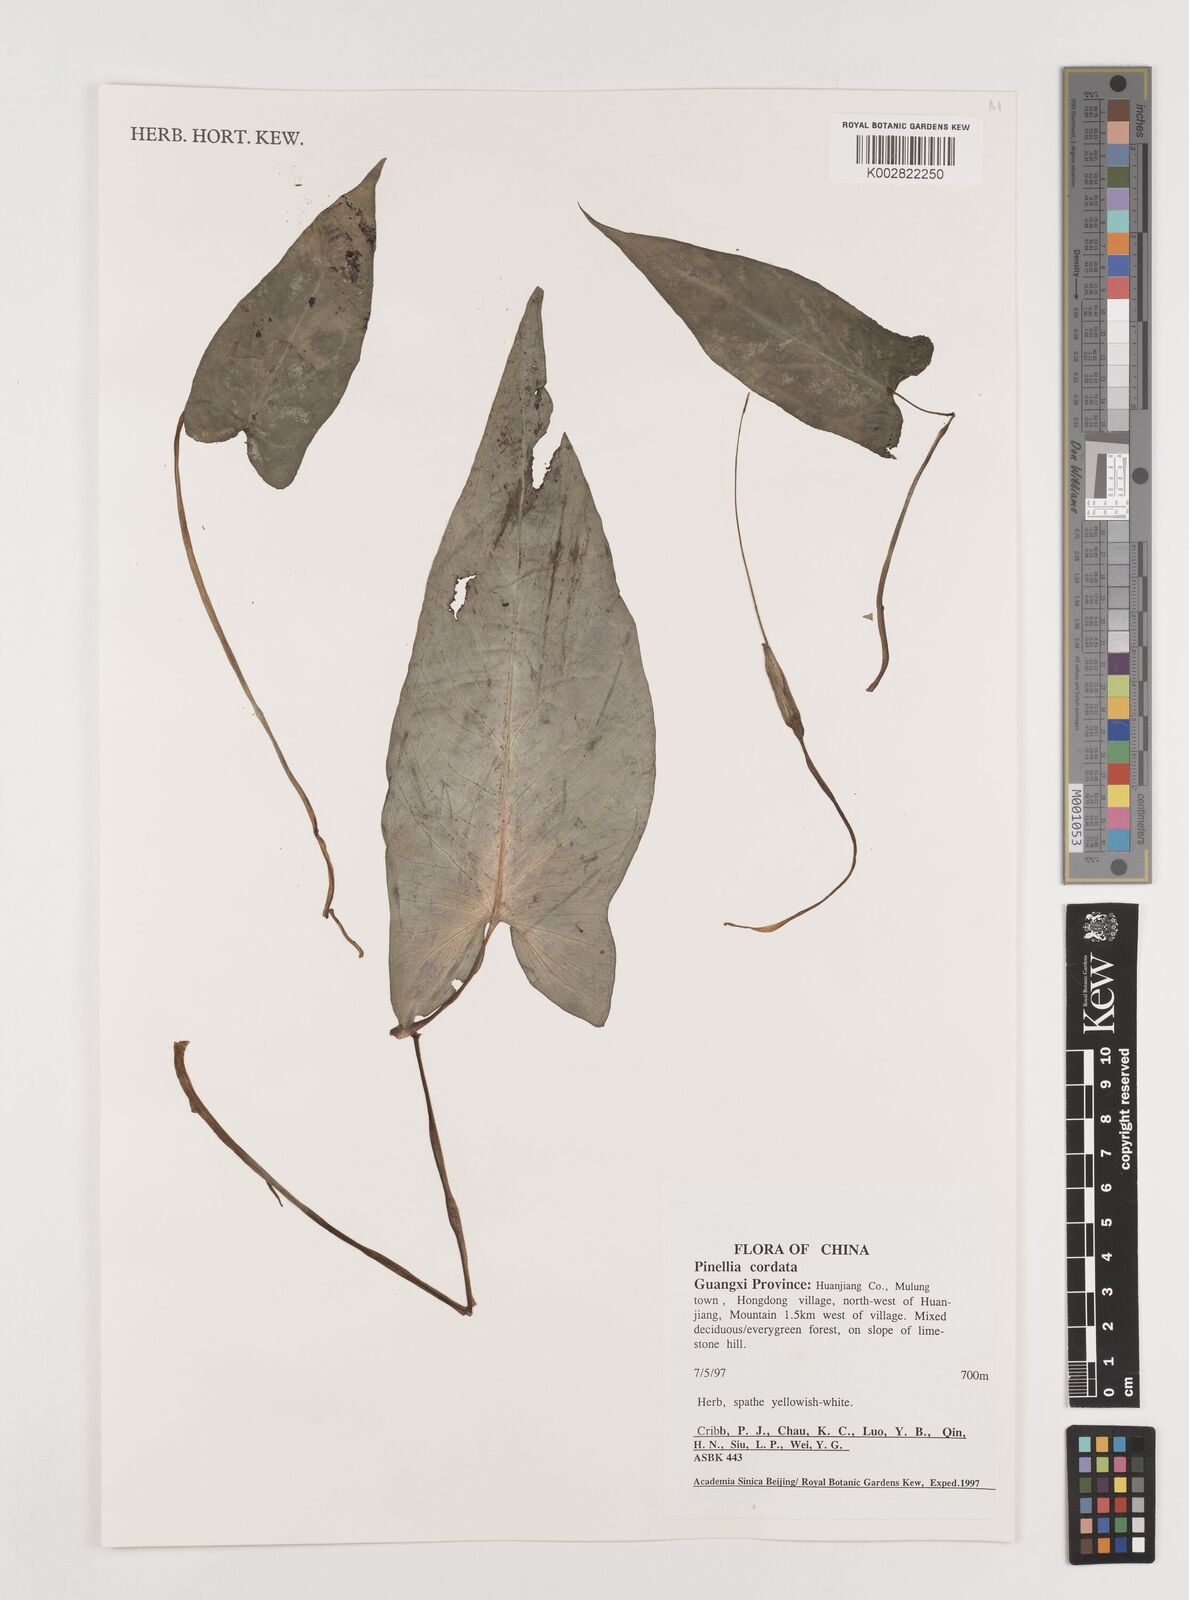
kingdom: Plantae
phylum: Tracheophyta
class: Liliopsida
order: Alismatales
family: Araceae
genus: Pinellia
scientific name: Pinellia cordata
